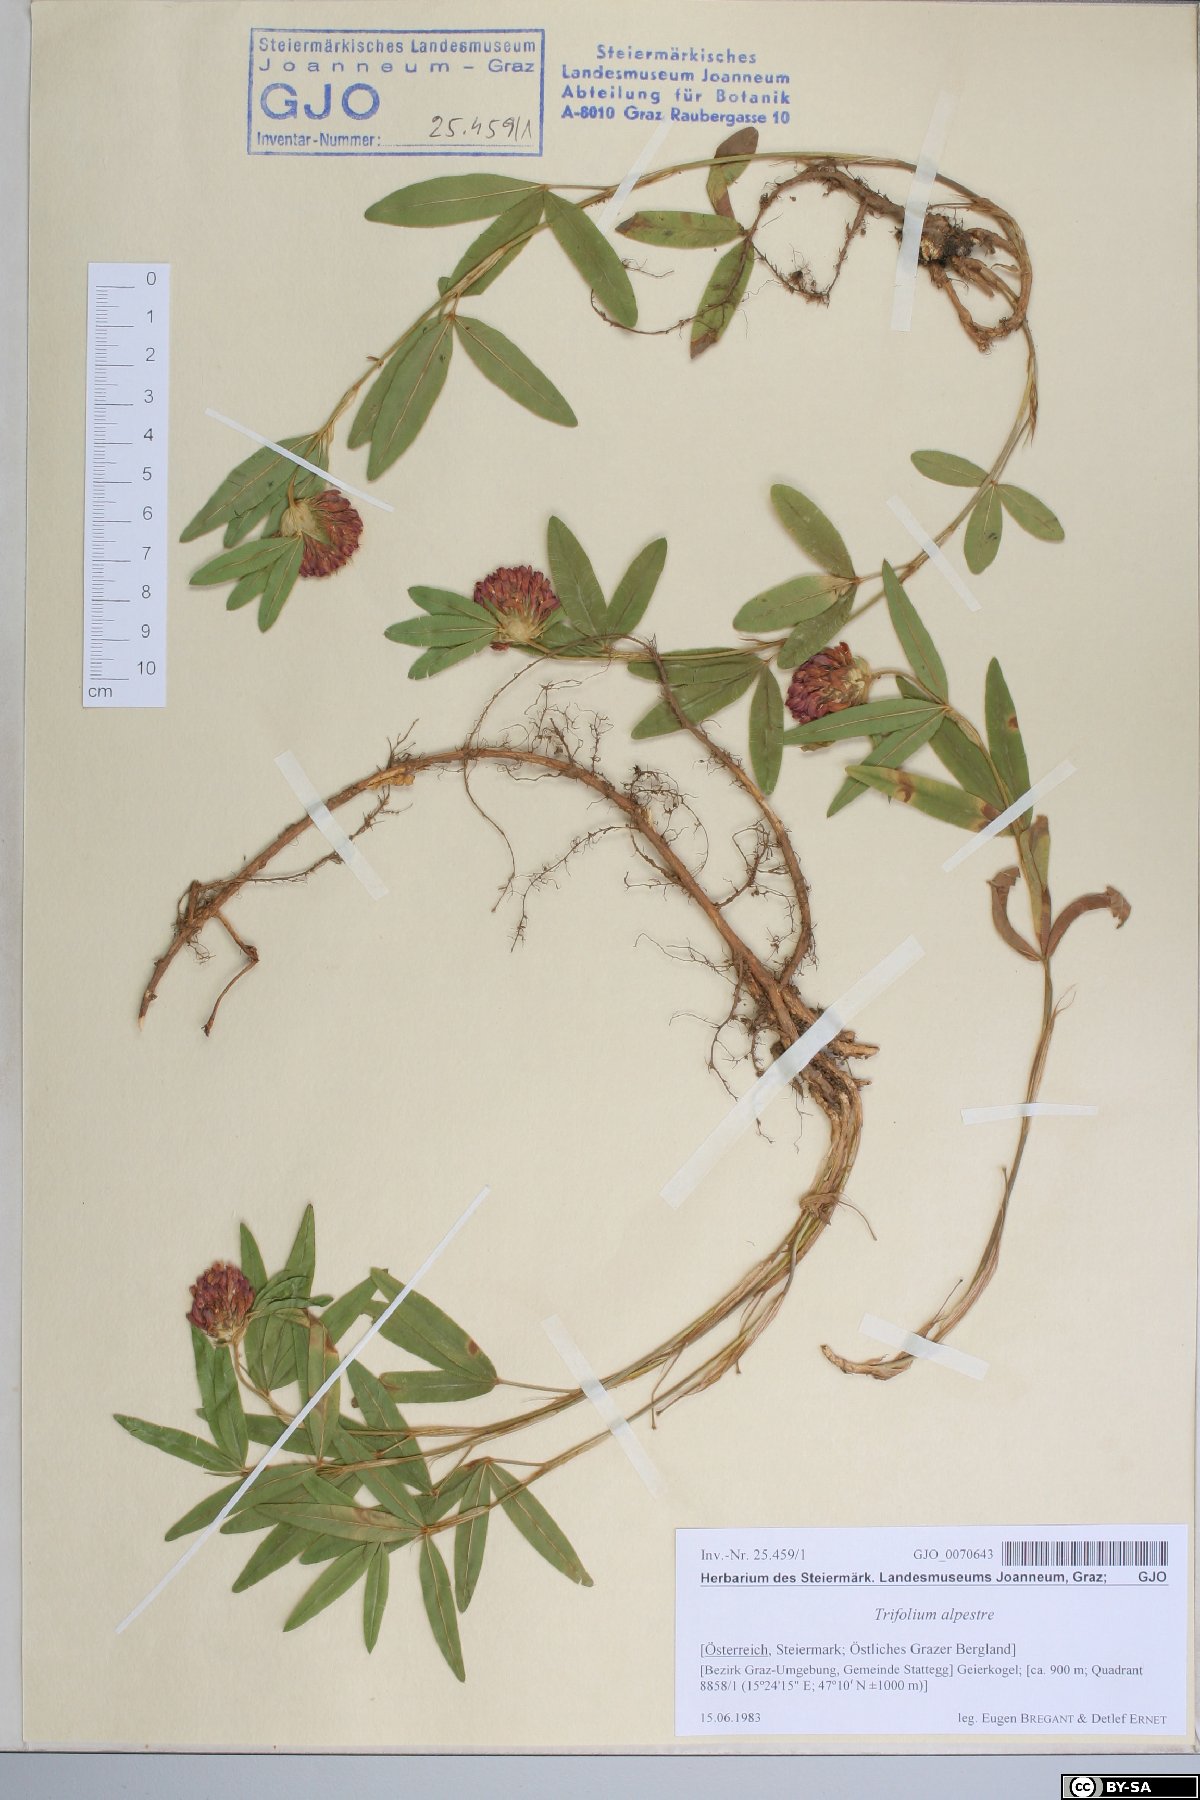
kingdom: Plantae
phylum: Tracheophyta
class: Magnoliopsida
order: Fabales
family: Fabaceae
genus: Trifolium
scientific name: Trifolium alpestre
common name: Owl-head clover
